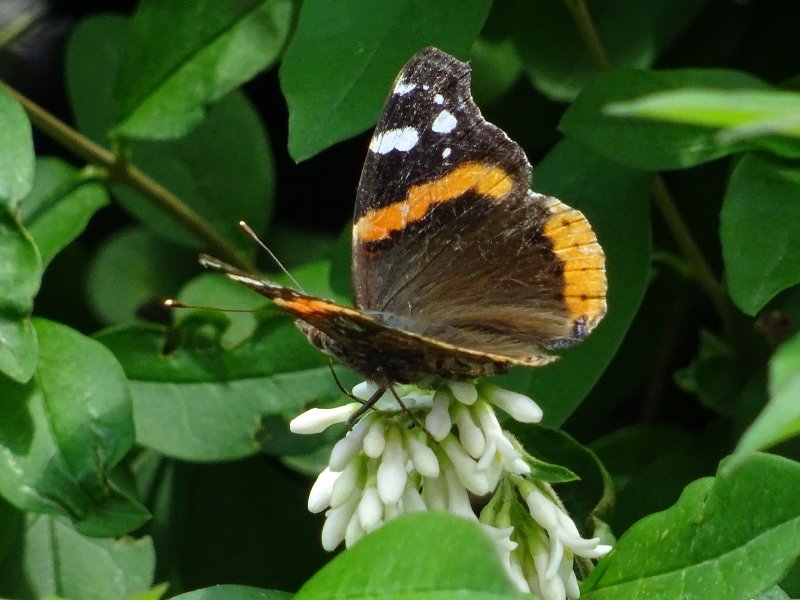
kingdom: Animalia
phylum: Arthropoda
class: Insecta
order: Lepidoptera
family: Nymphalidae
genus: Vanessa
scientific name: Vanessa atalanta
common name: Red Admiral
